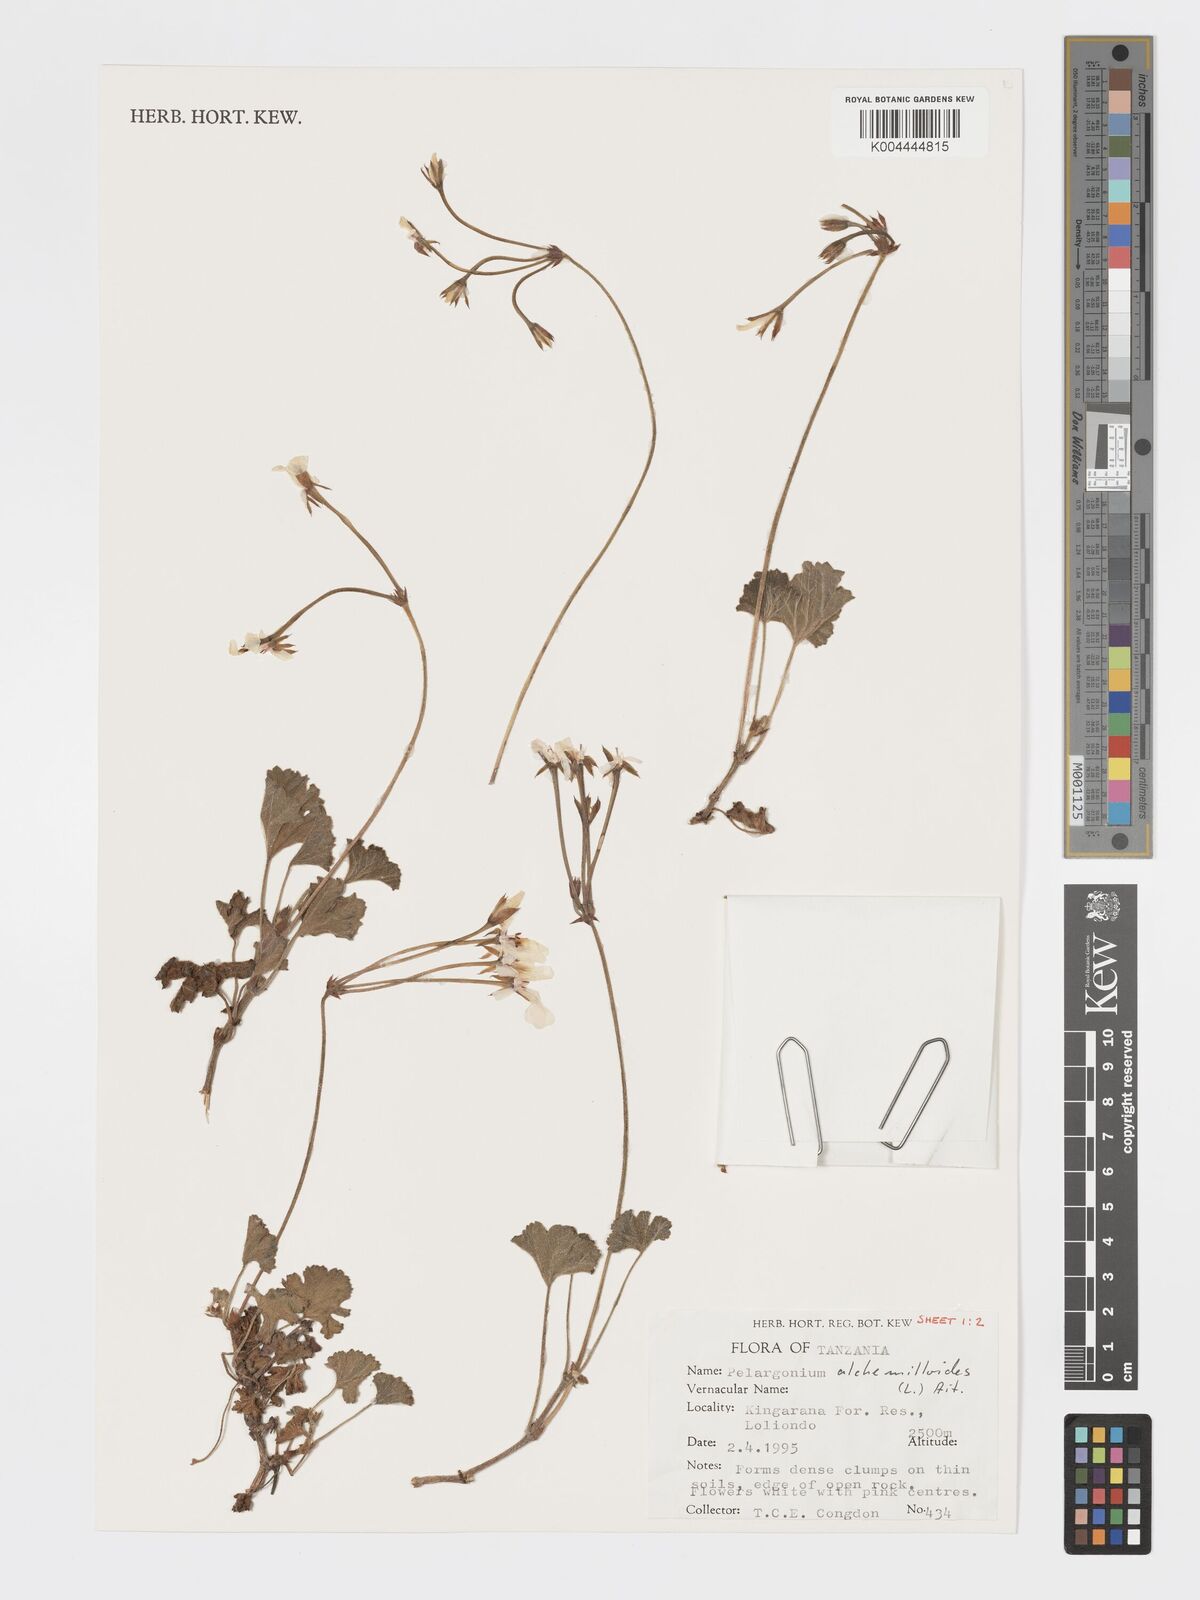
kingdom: Plantae
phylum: Tracheophyta
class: Magnoliopsida
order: Geraniales
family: Geraniaceae
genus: Pelargonium
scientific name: Pelargonium alchemilloides
